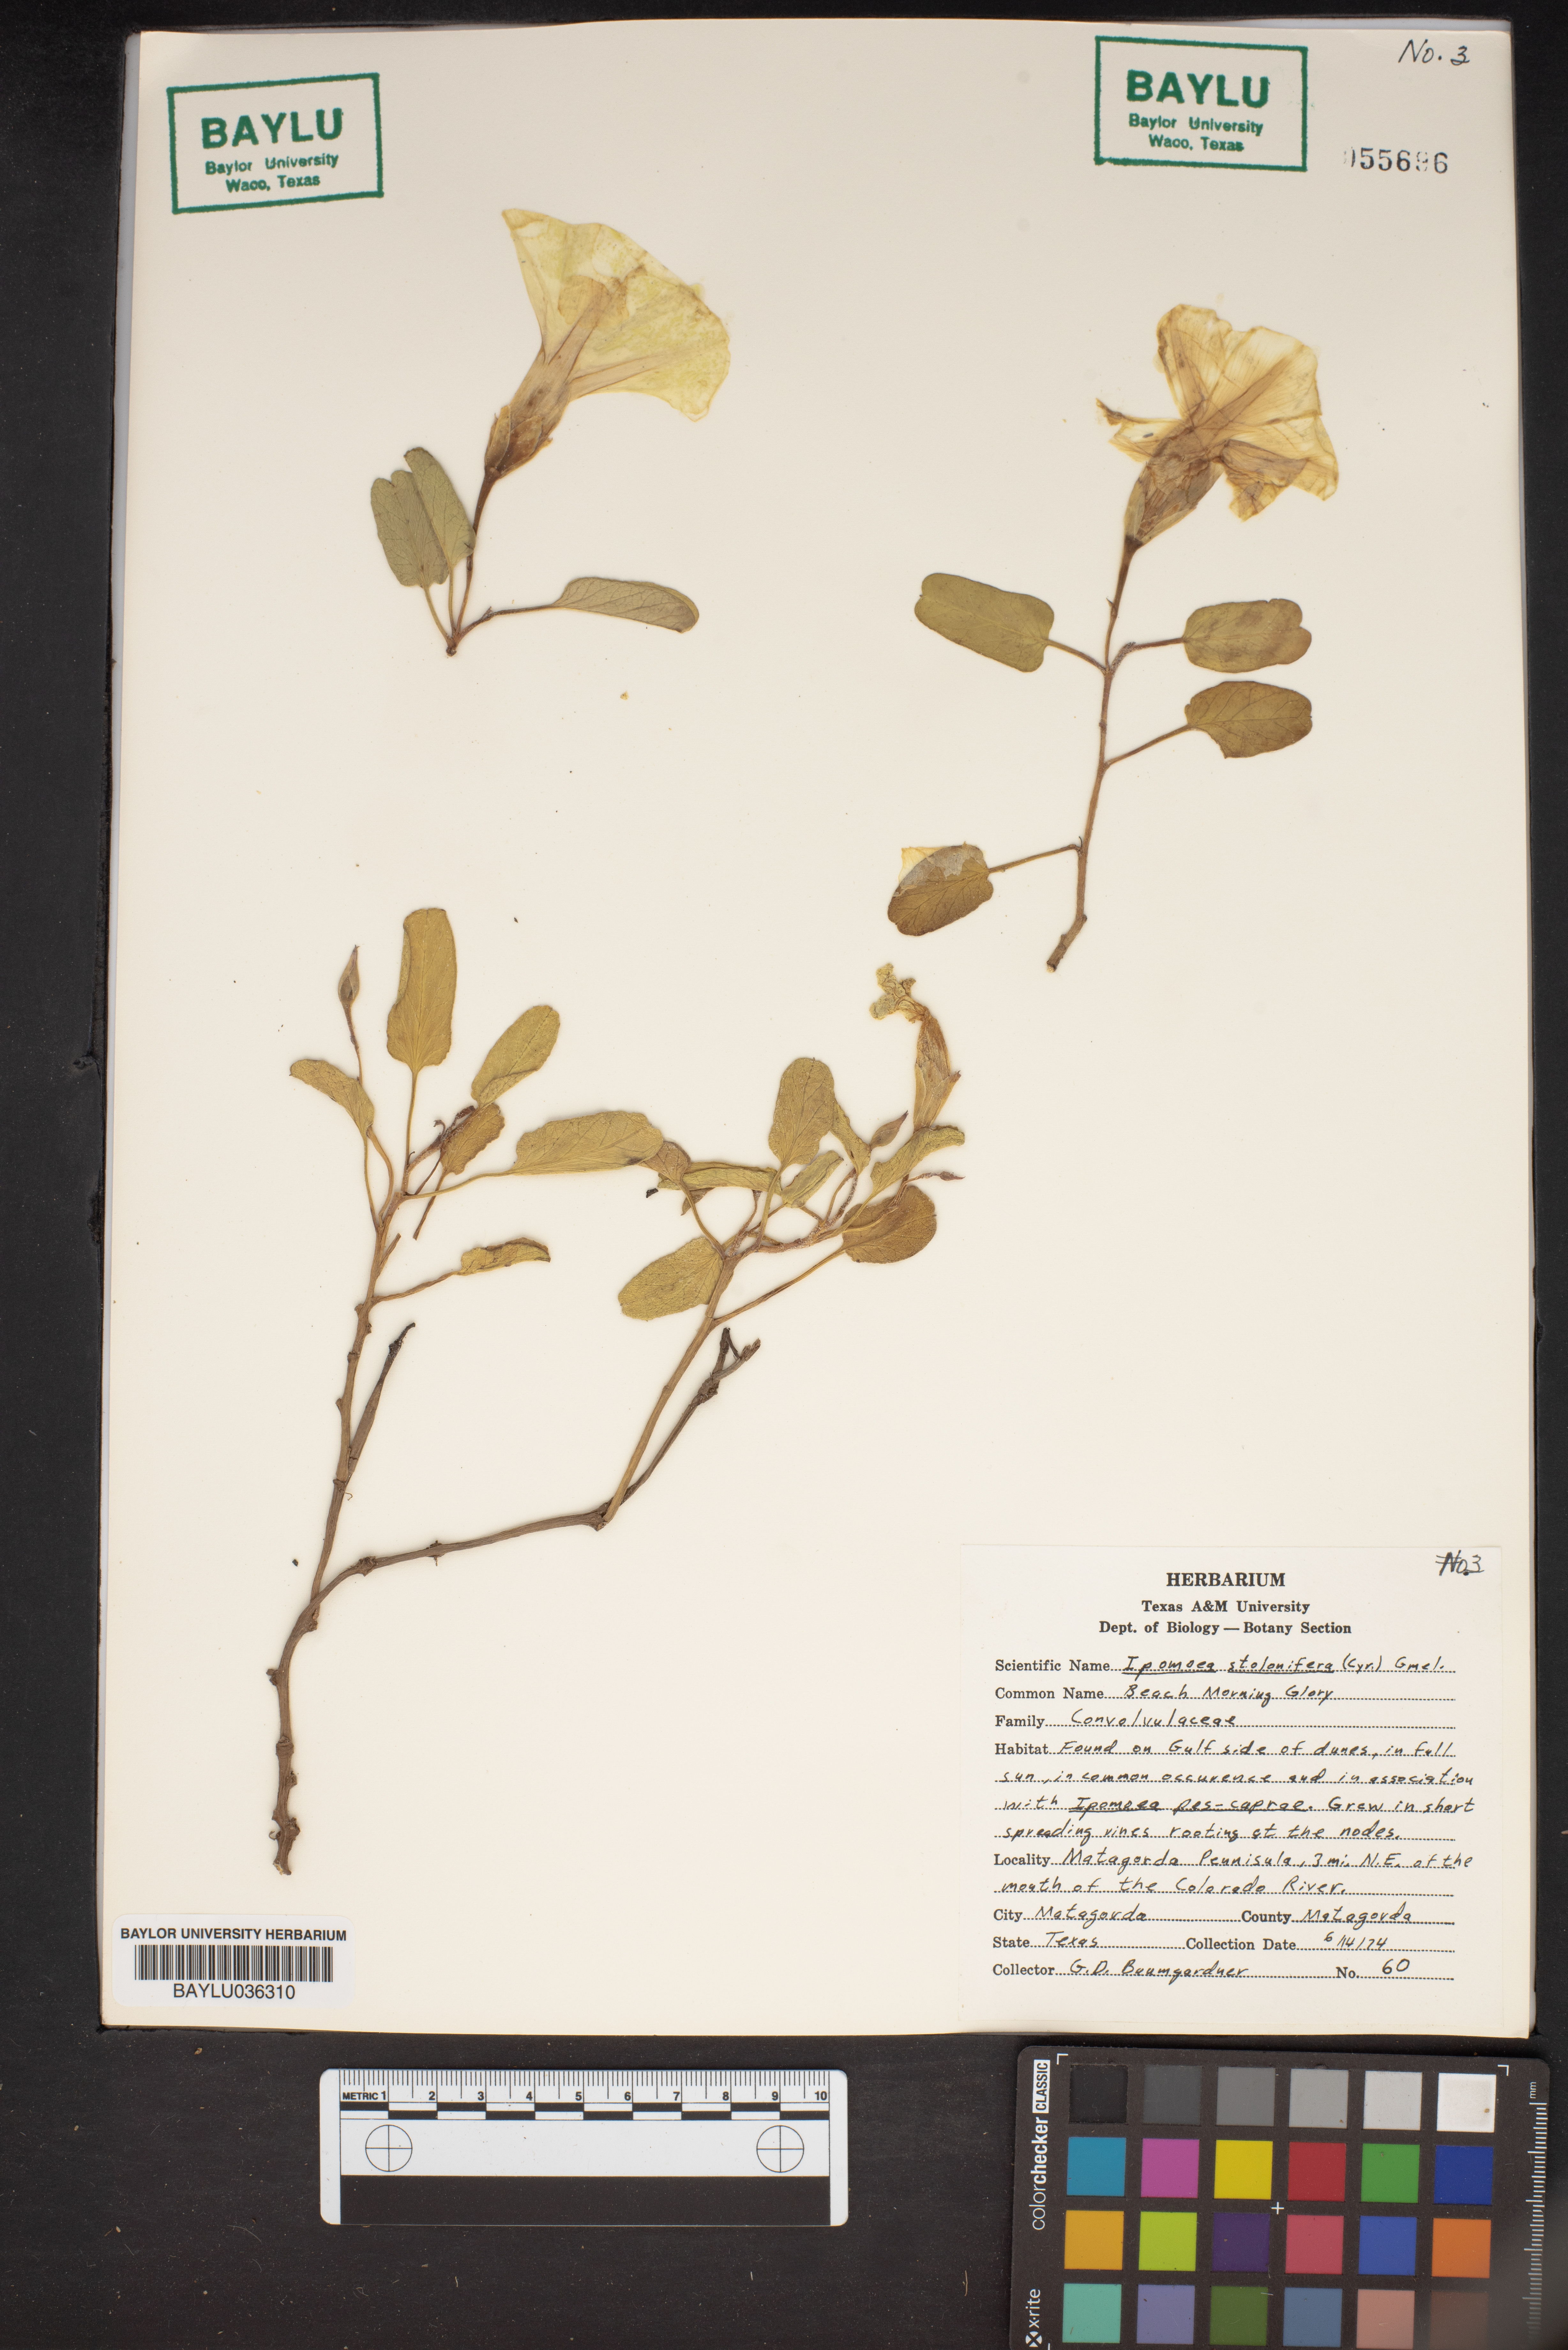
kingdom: Plantae
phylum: Tracheophyta
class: Magnoliopsida
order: Solanales
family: Convolvulaceae
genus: Ipomoea
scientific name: Ipomoea imperati
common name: Fiddle-leaf morning-glory
